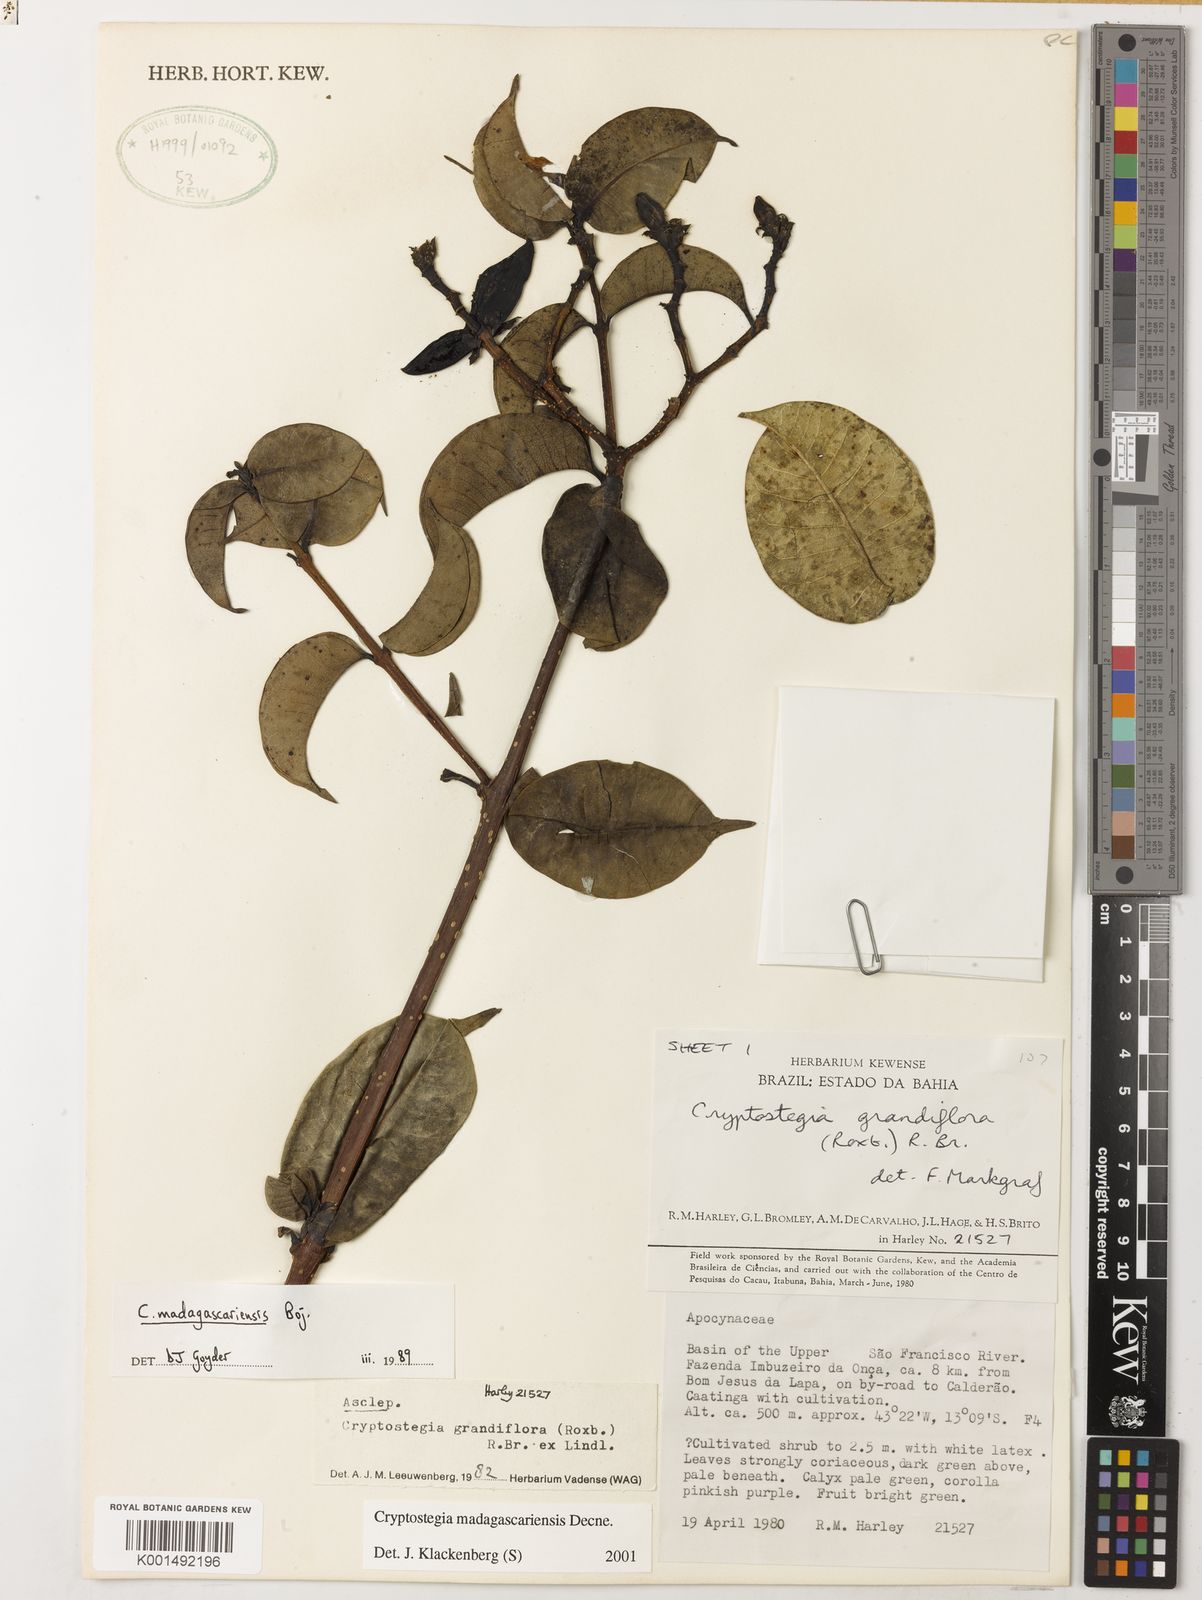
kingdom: Plantae
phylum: Tracheophyta
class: Magnoliopsida
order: Gentianales
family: Apocynaceae
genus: Cryptostegia
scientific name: Cryptostegia madagascariensis
